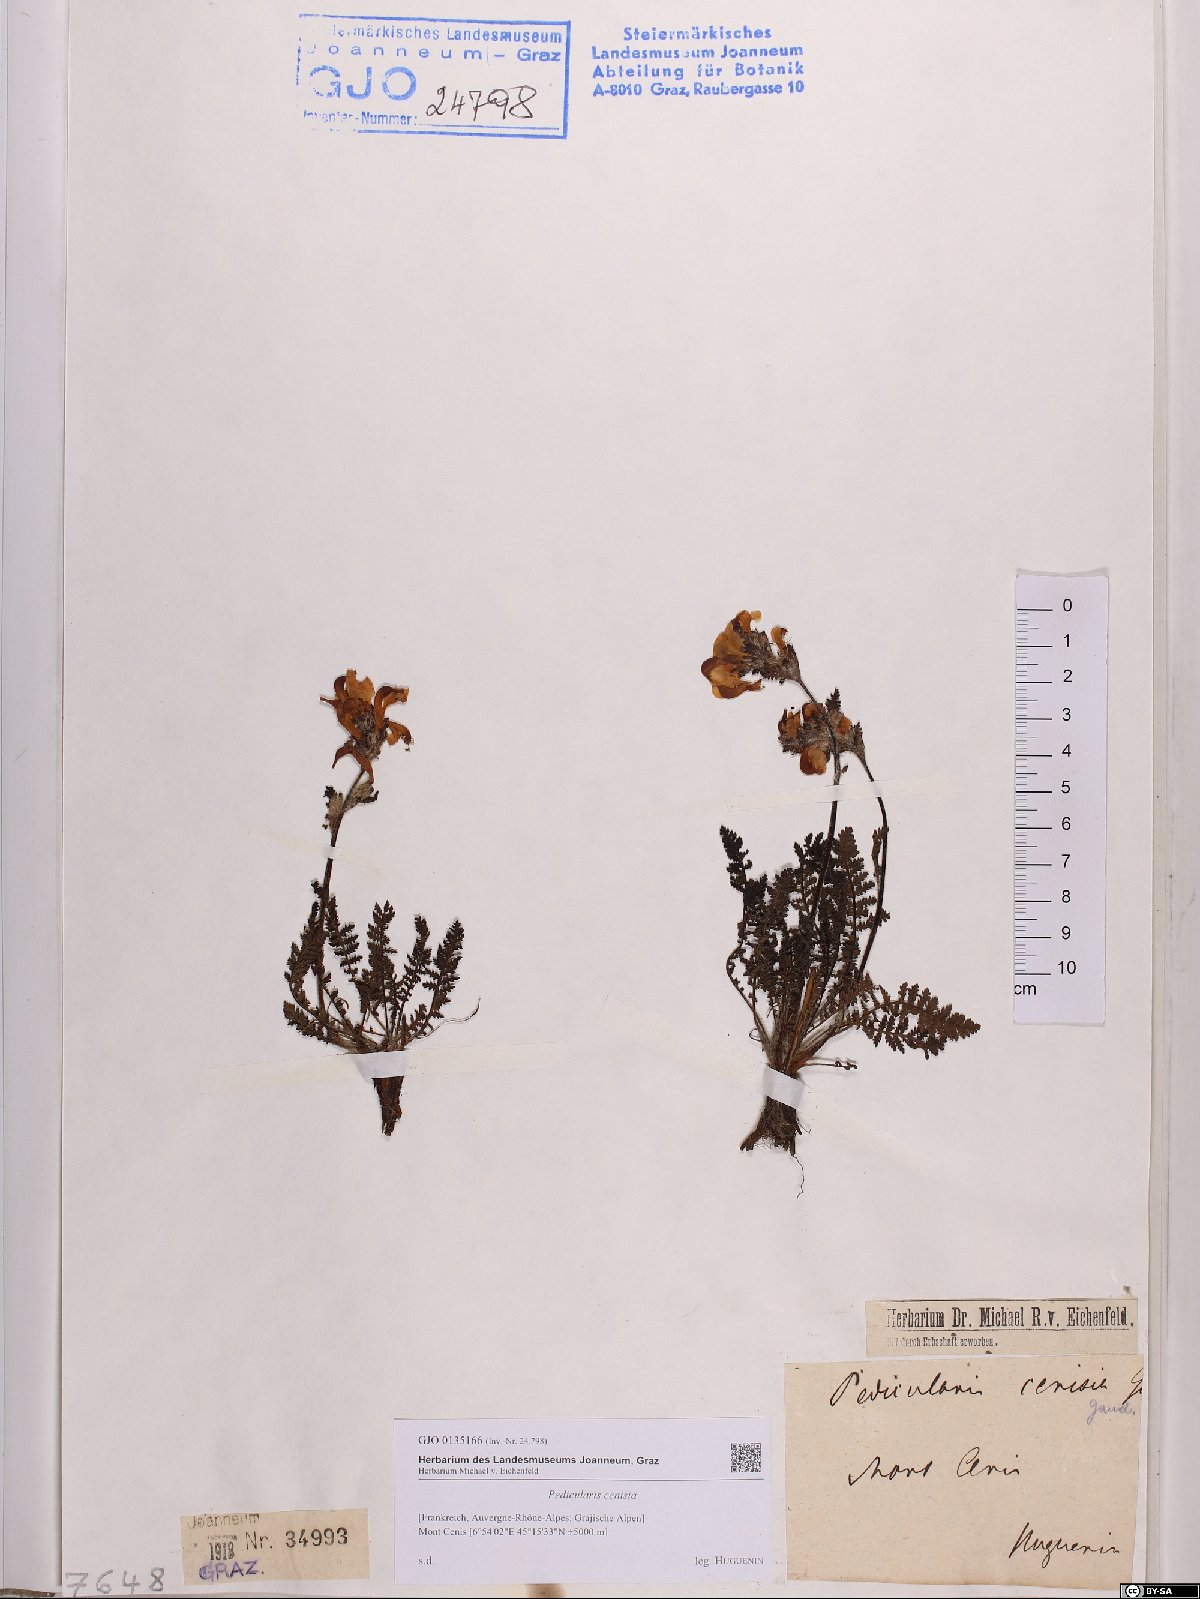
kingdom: Plantae
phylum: Tracheophyta
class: Magnoliopsida
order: Lamiales
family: Orobanchaceae
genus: Pedicularis
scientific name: Pedicularis cenisia
